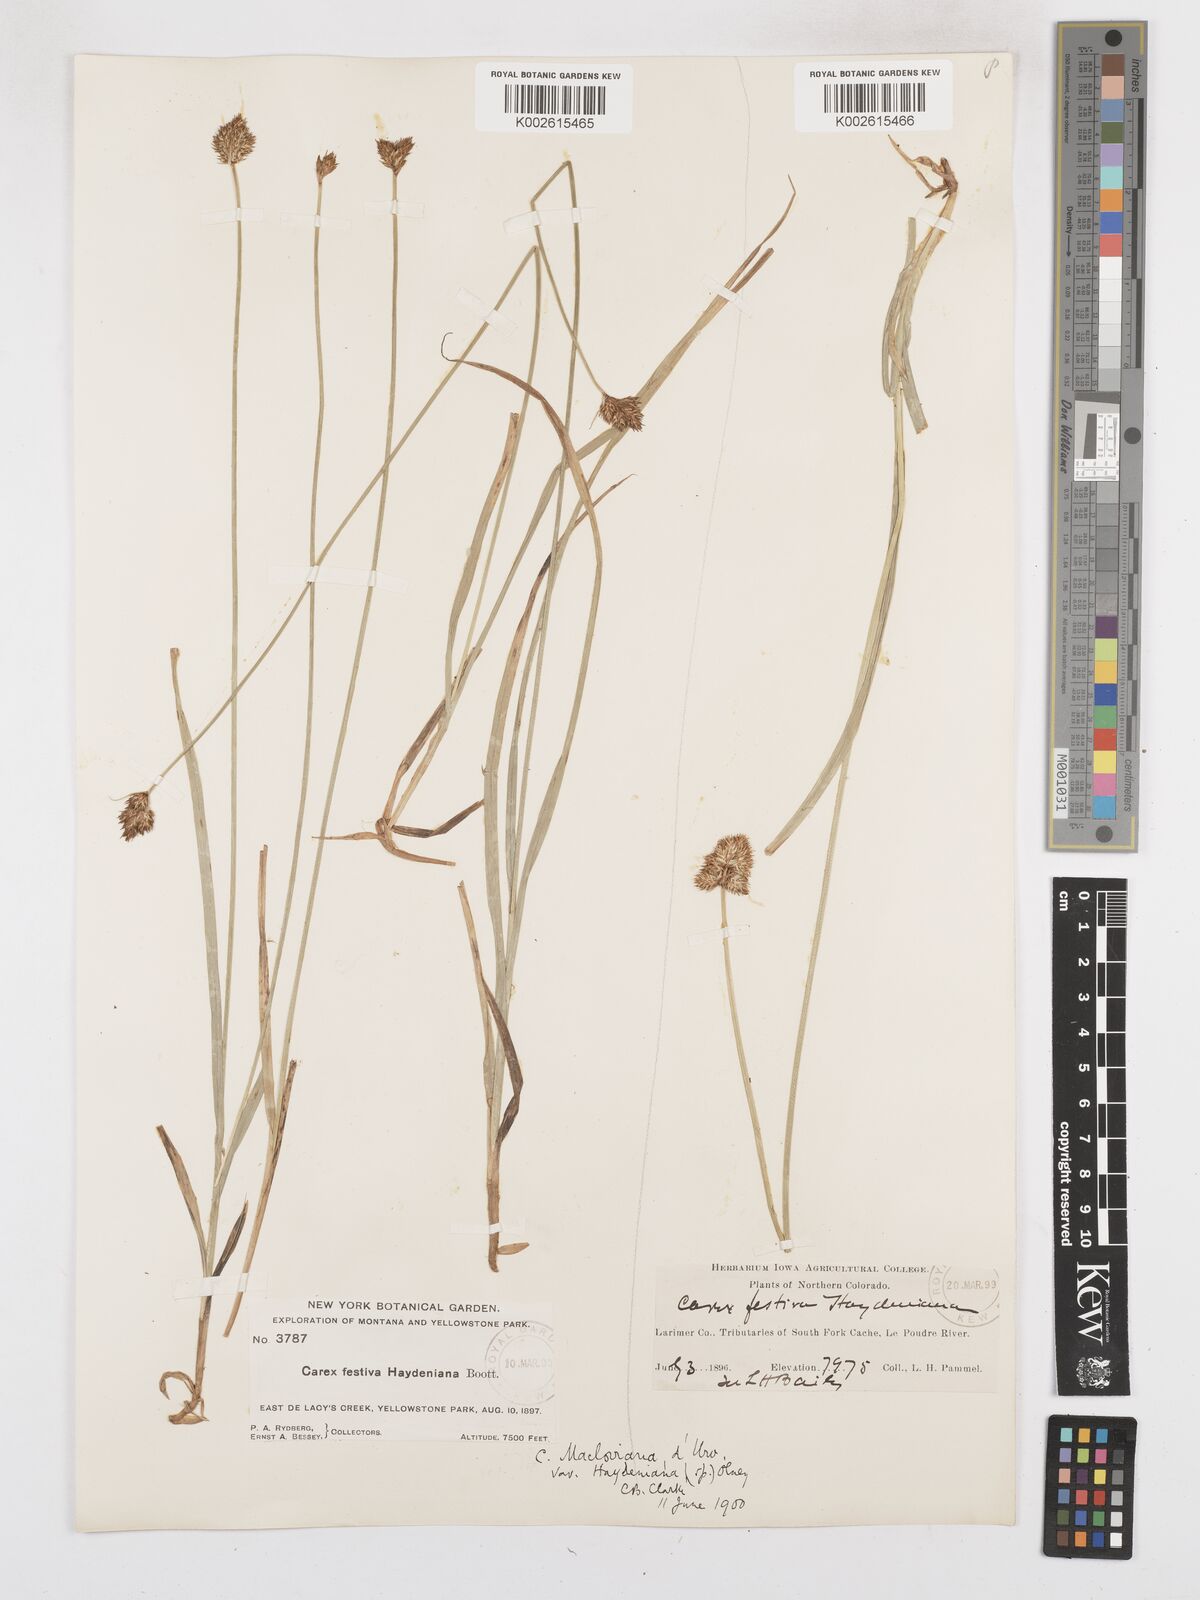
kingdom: Plantae
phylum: Tracheophyta
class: Liliopsida
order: Poales
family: Cyperaceae
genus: Carex
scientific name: Carex haydeniana
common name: Cloud sedge
